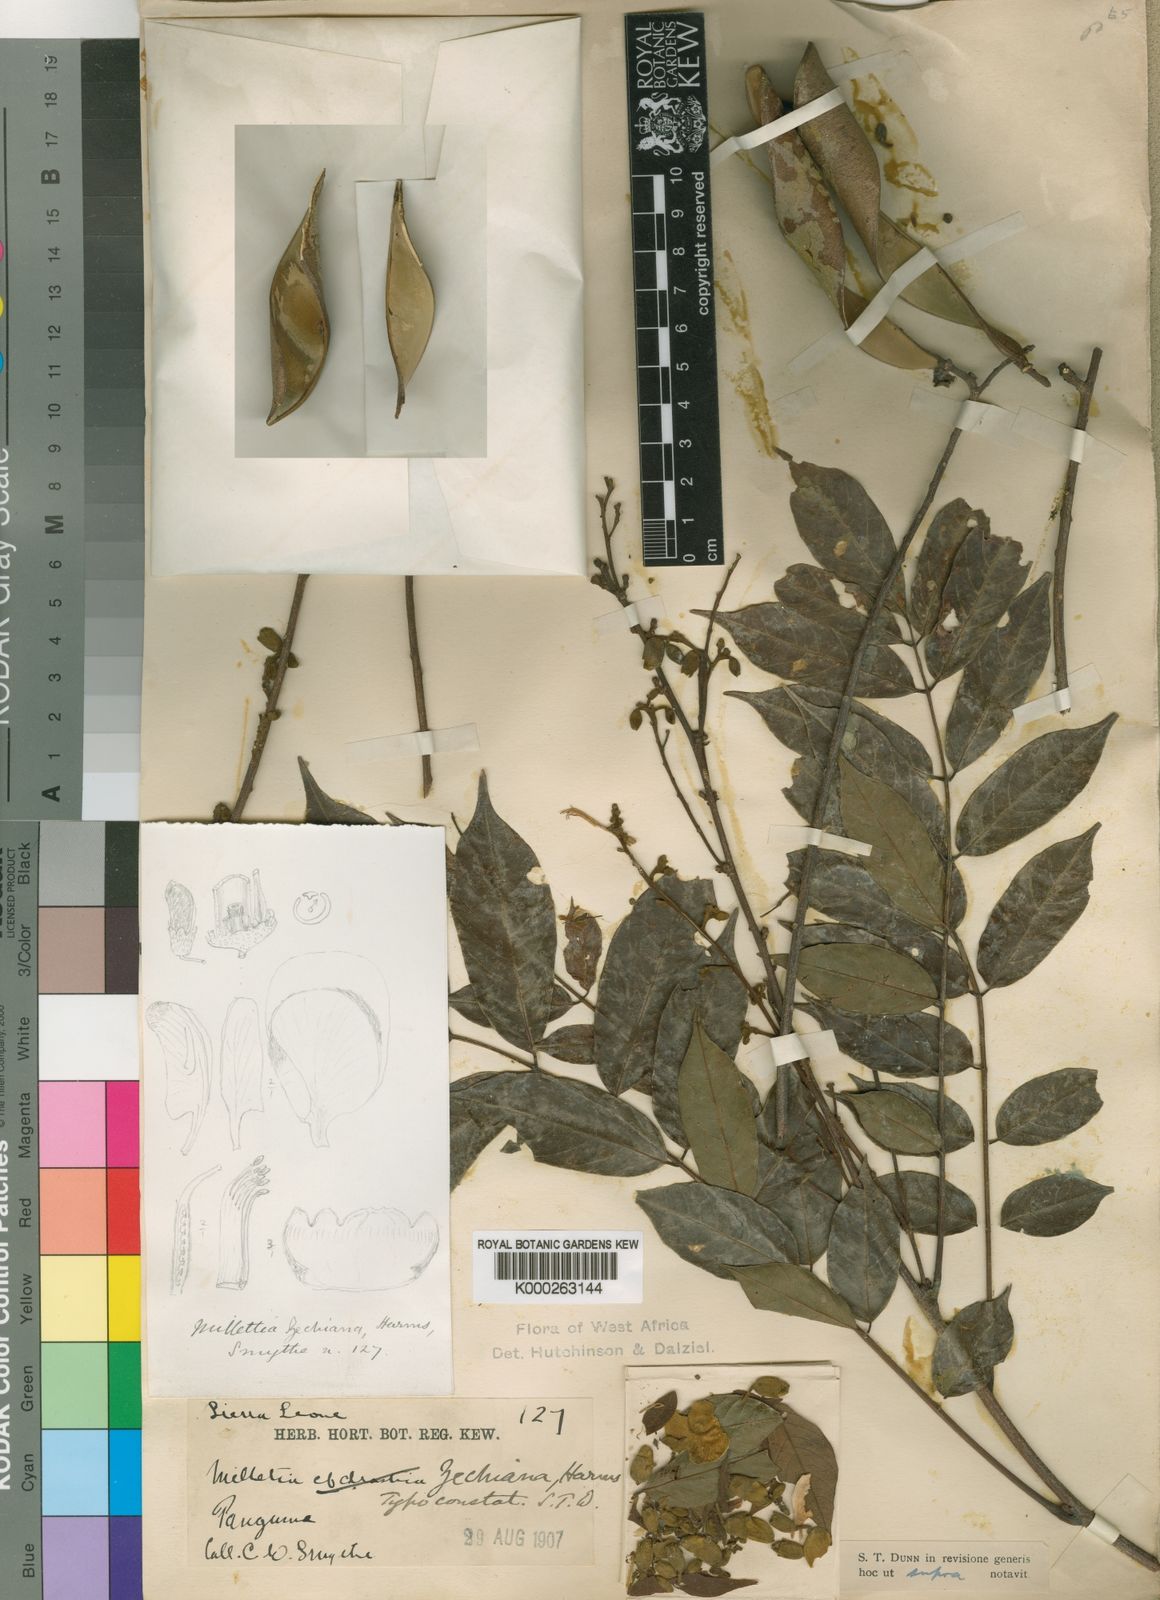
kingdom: Plantae
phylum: Tracheophyta
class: Magnoliopsida
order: Fabales
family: Fabaceae
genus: Millettia
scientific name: Millettia zechiana
